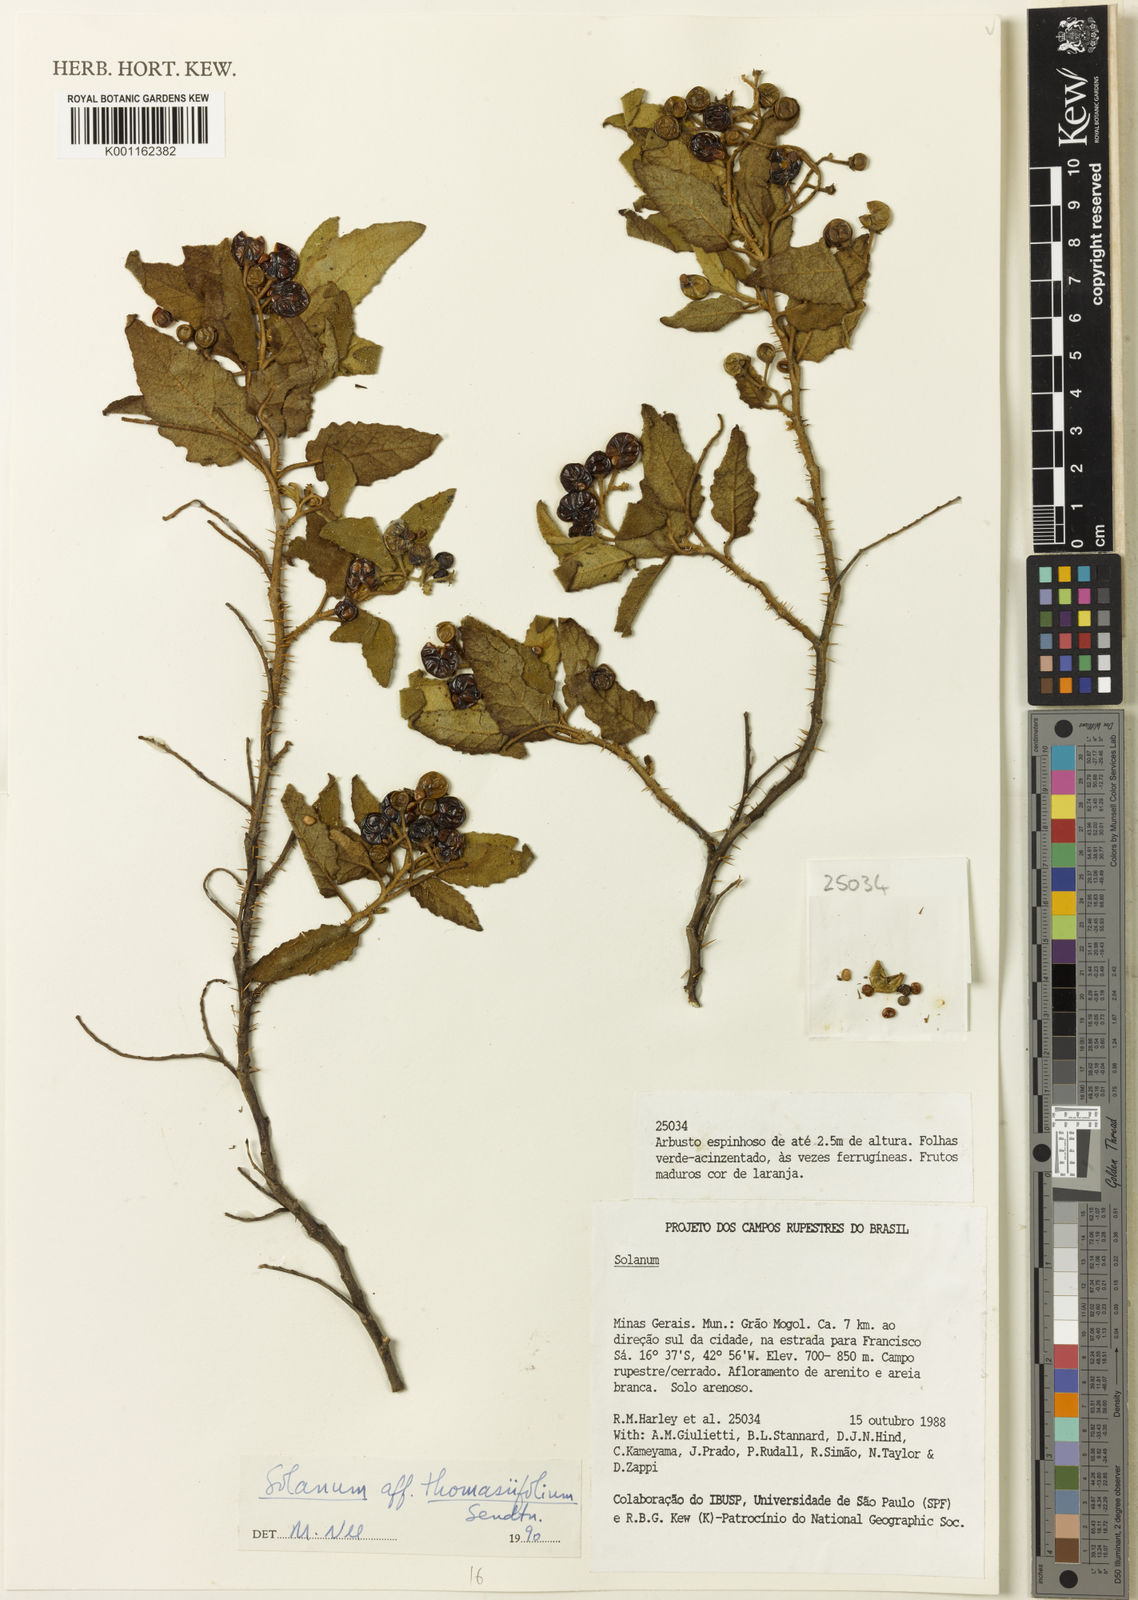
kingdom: Plantae
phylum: Tracheophyta
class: Magnoliopsida
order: Solanales
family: Solanaceae
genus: Solanum
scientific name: Solanum thomasiifolium
